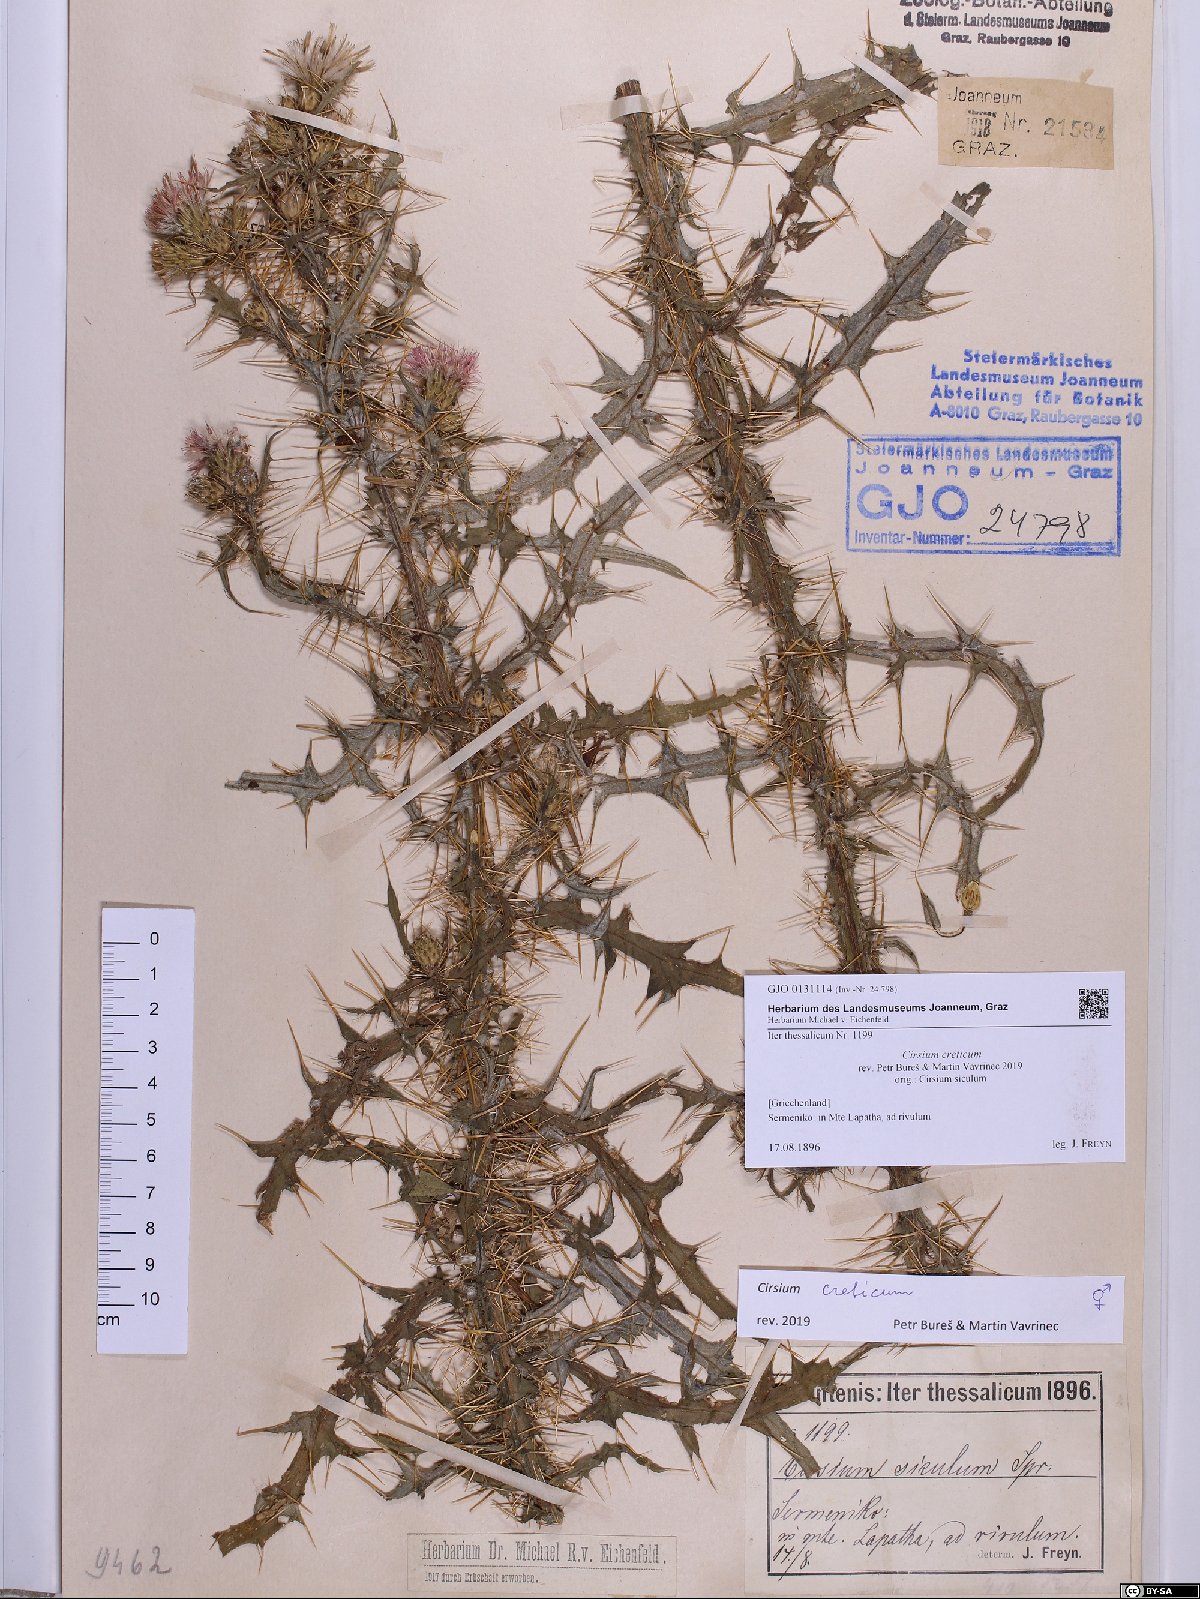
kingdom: Plantae
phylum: Tracheophyta
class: Magnoliopsida
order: Asterales
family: Asteraceae
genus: Cirsium
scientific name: Cirsium creticum
